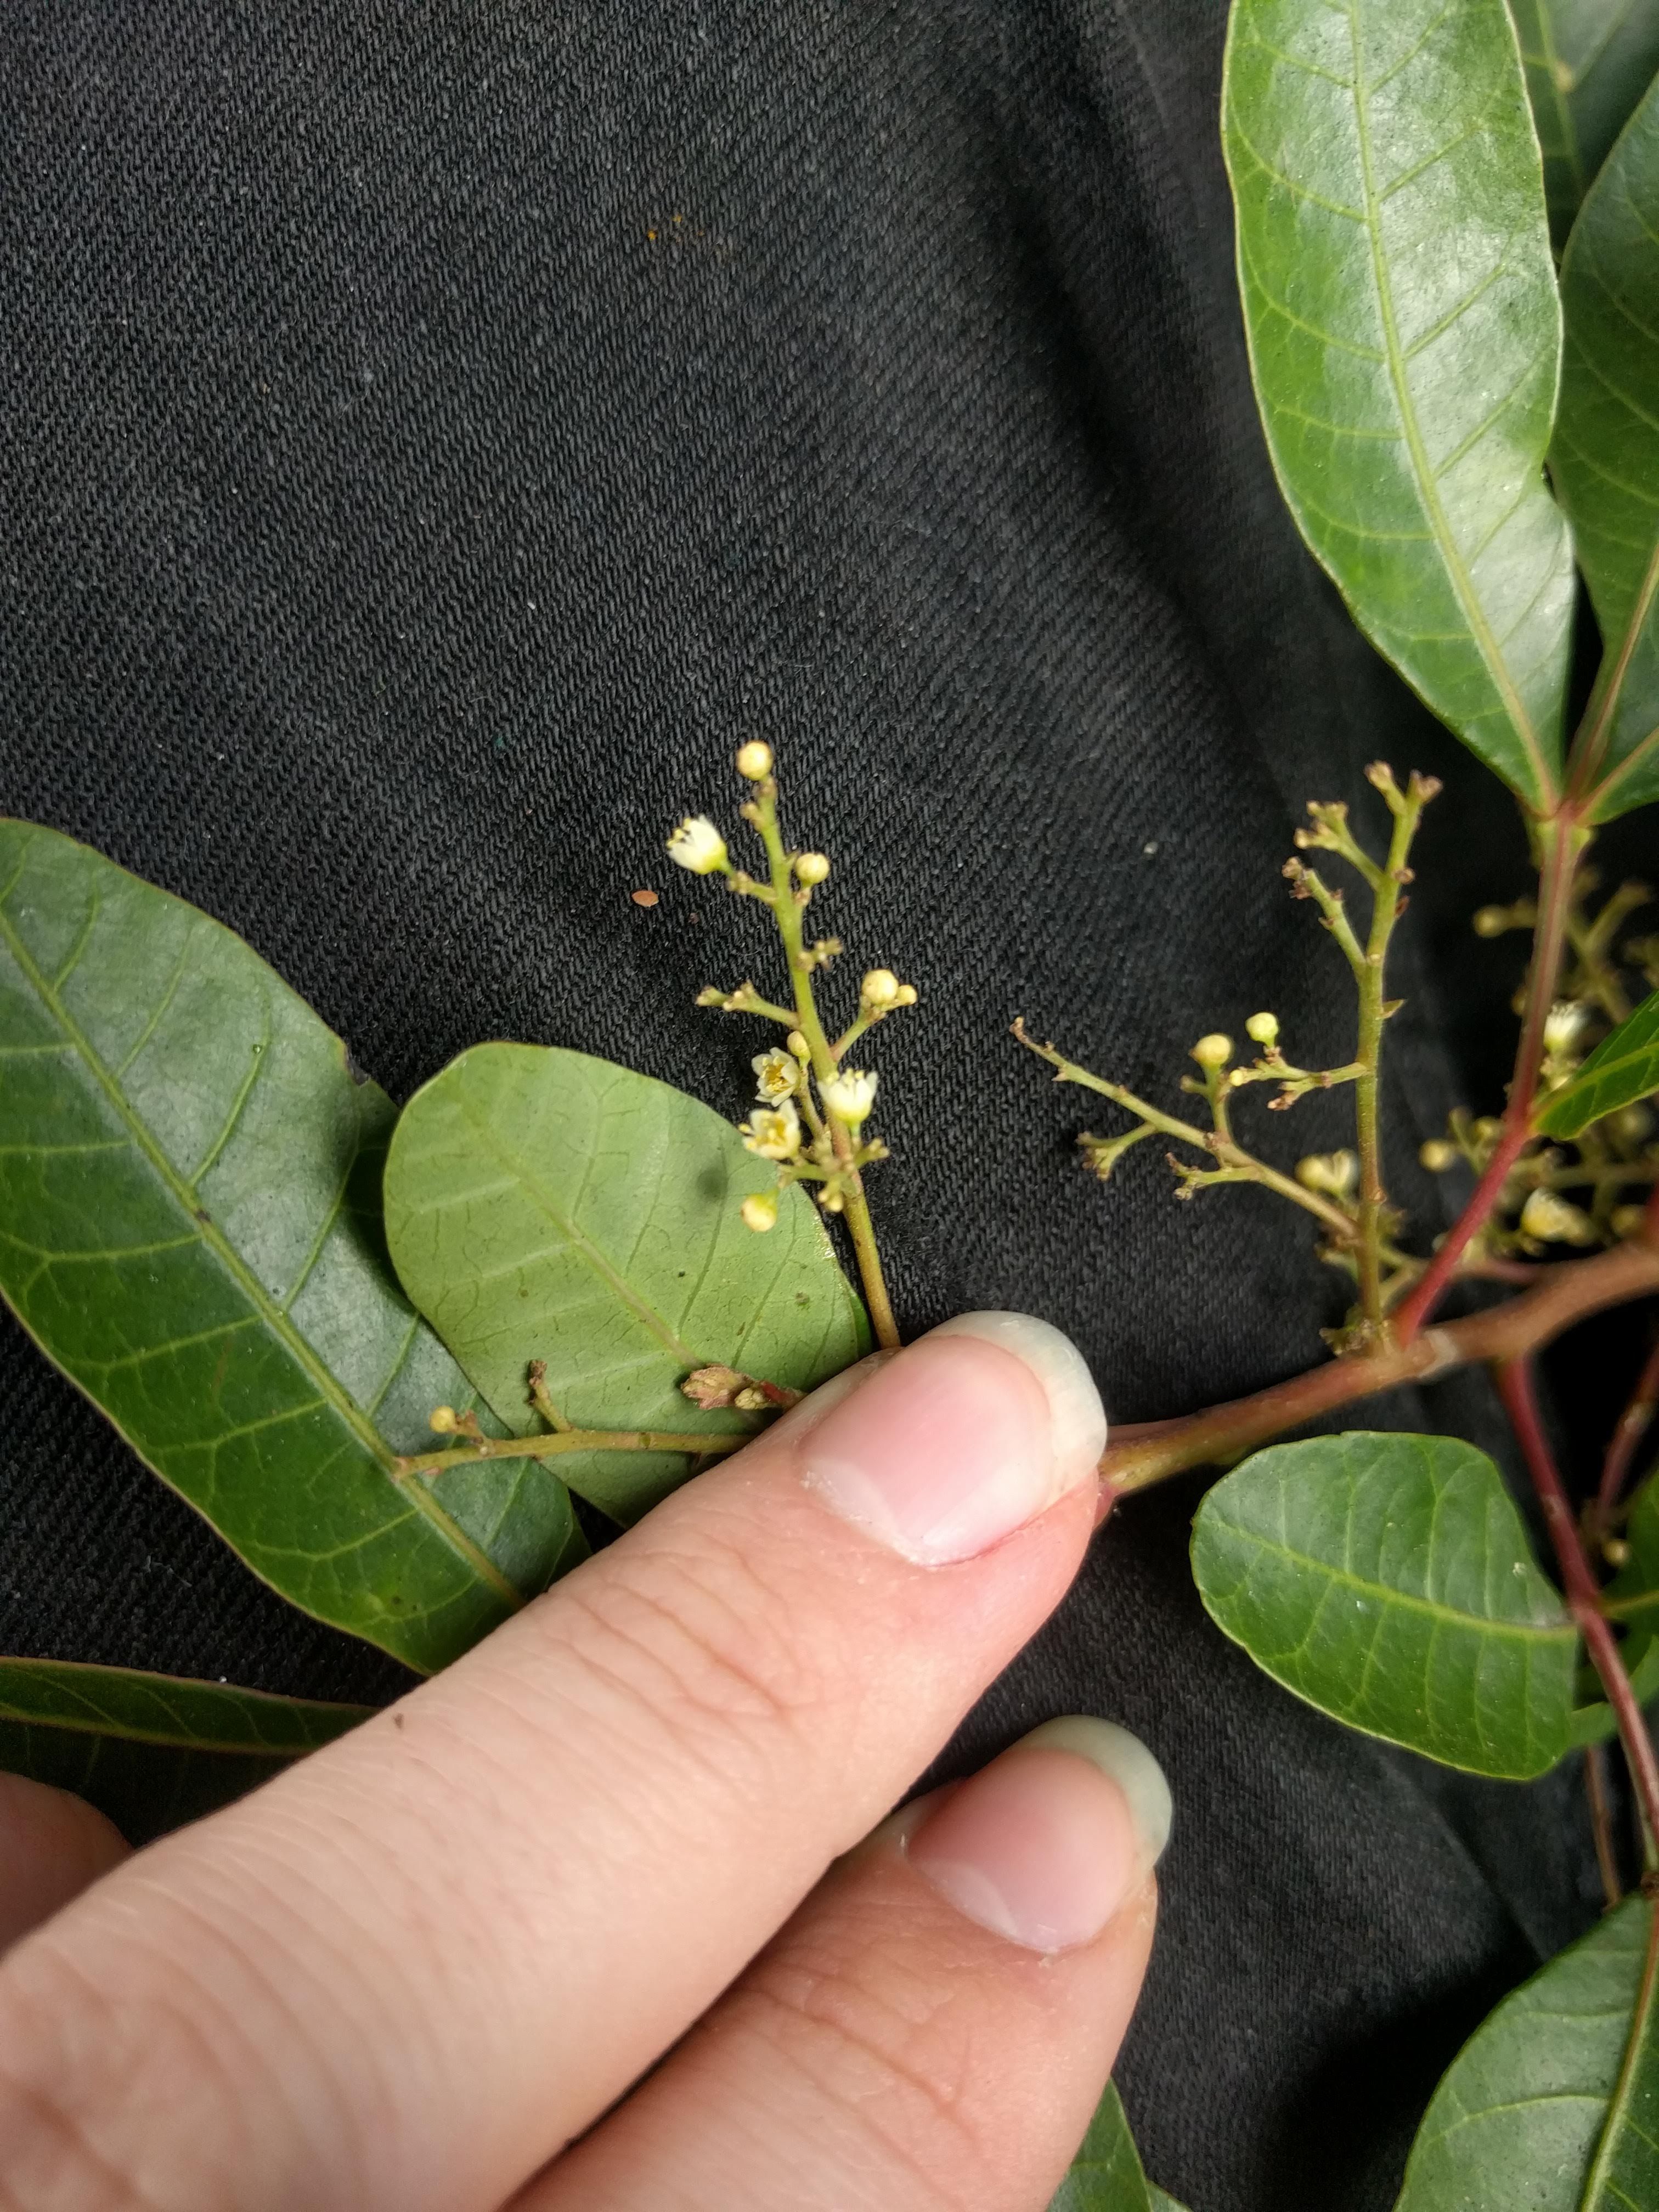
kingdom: Plantae
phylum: Tracheophyta
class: Magnoliopsida
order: Sapindales
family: Anacardiaceae
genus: Schinus
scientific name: Schinus terebinthifolia
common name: Brazilian peppertree
